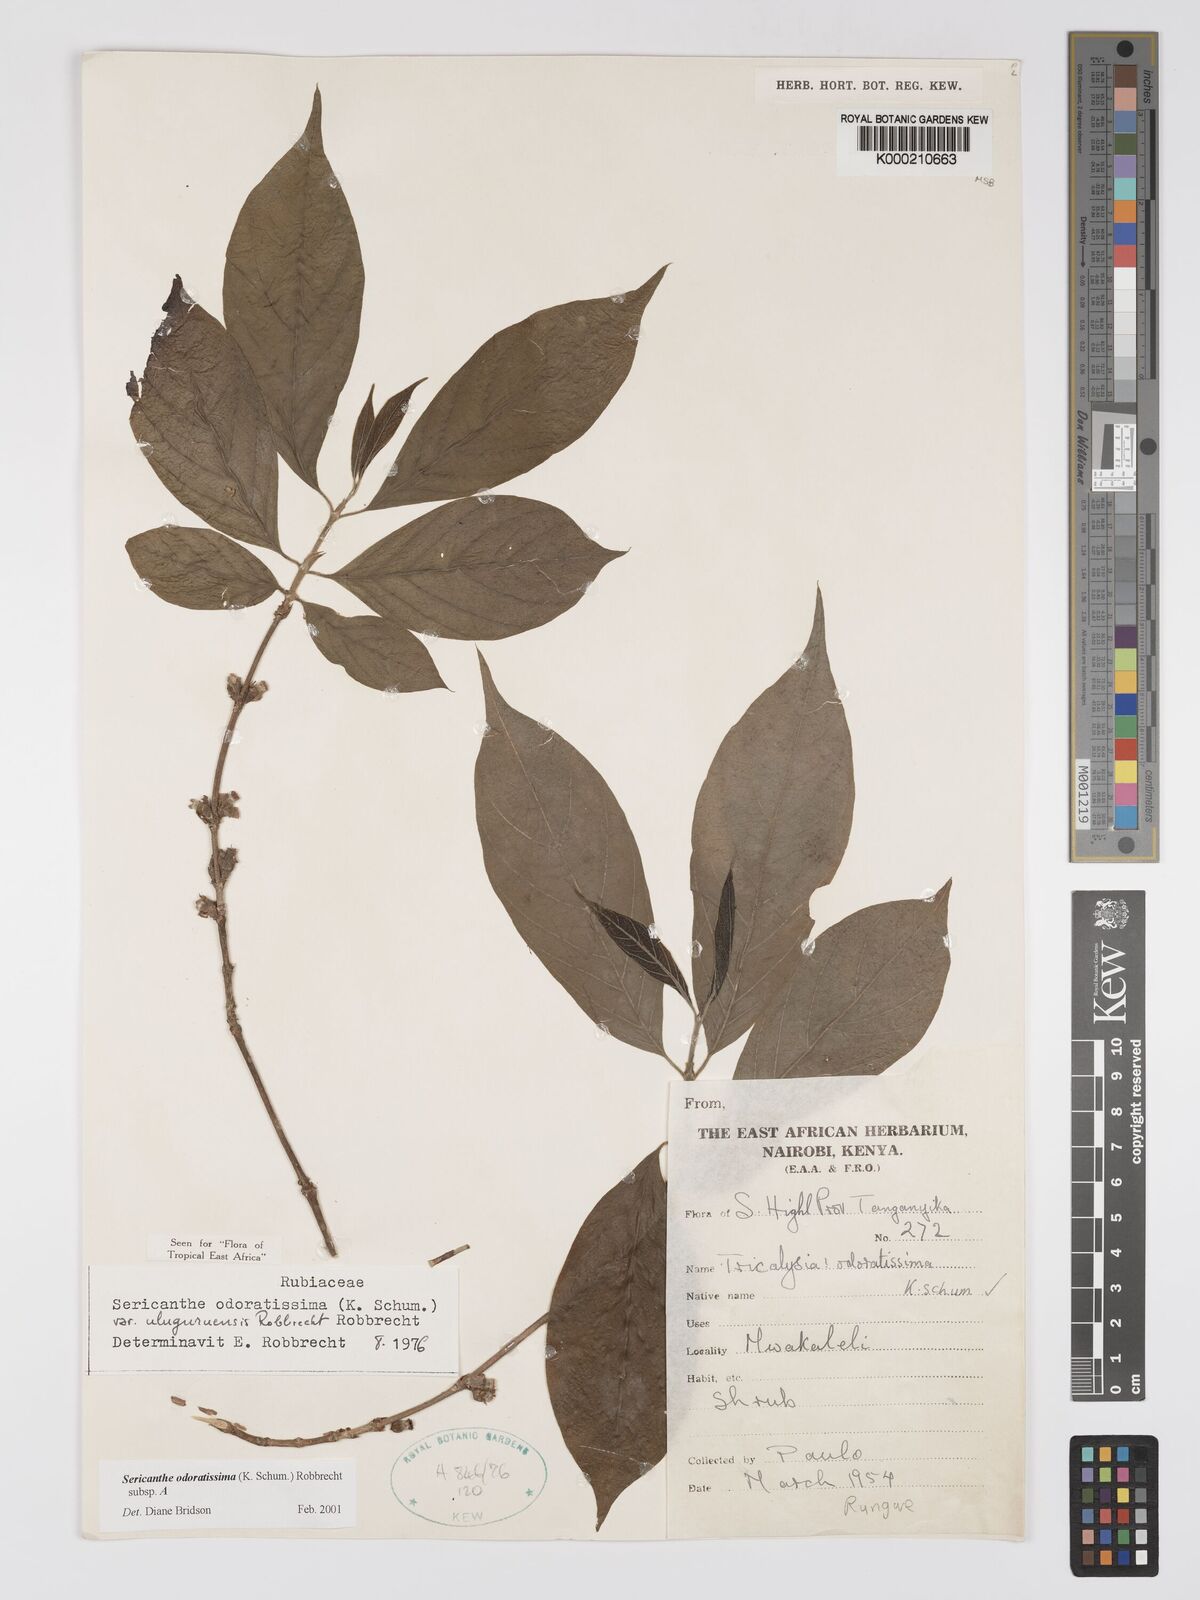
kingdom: Plantae
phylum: Tracheophyta
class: Magnoliopsida
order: Gentianales
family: Rubiaceae
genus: Sericanthe
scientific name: Sericanthe odoratissima
